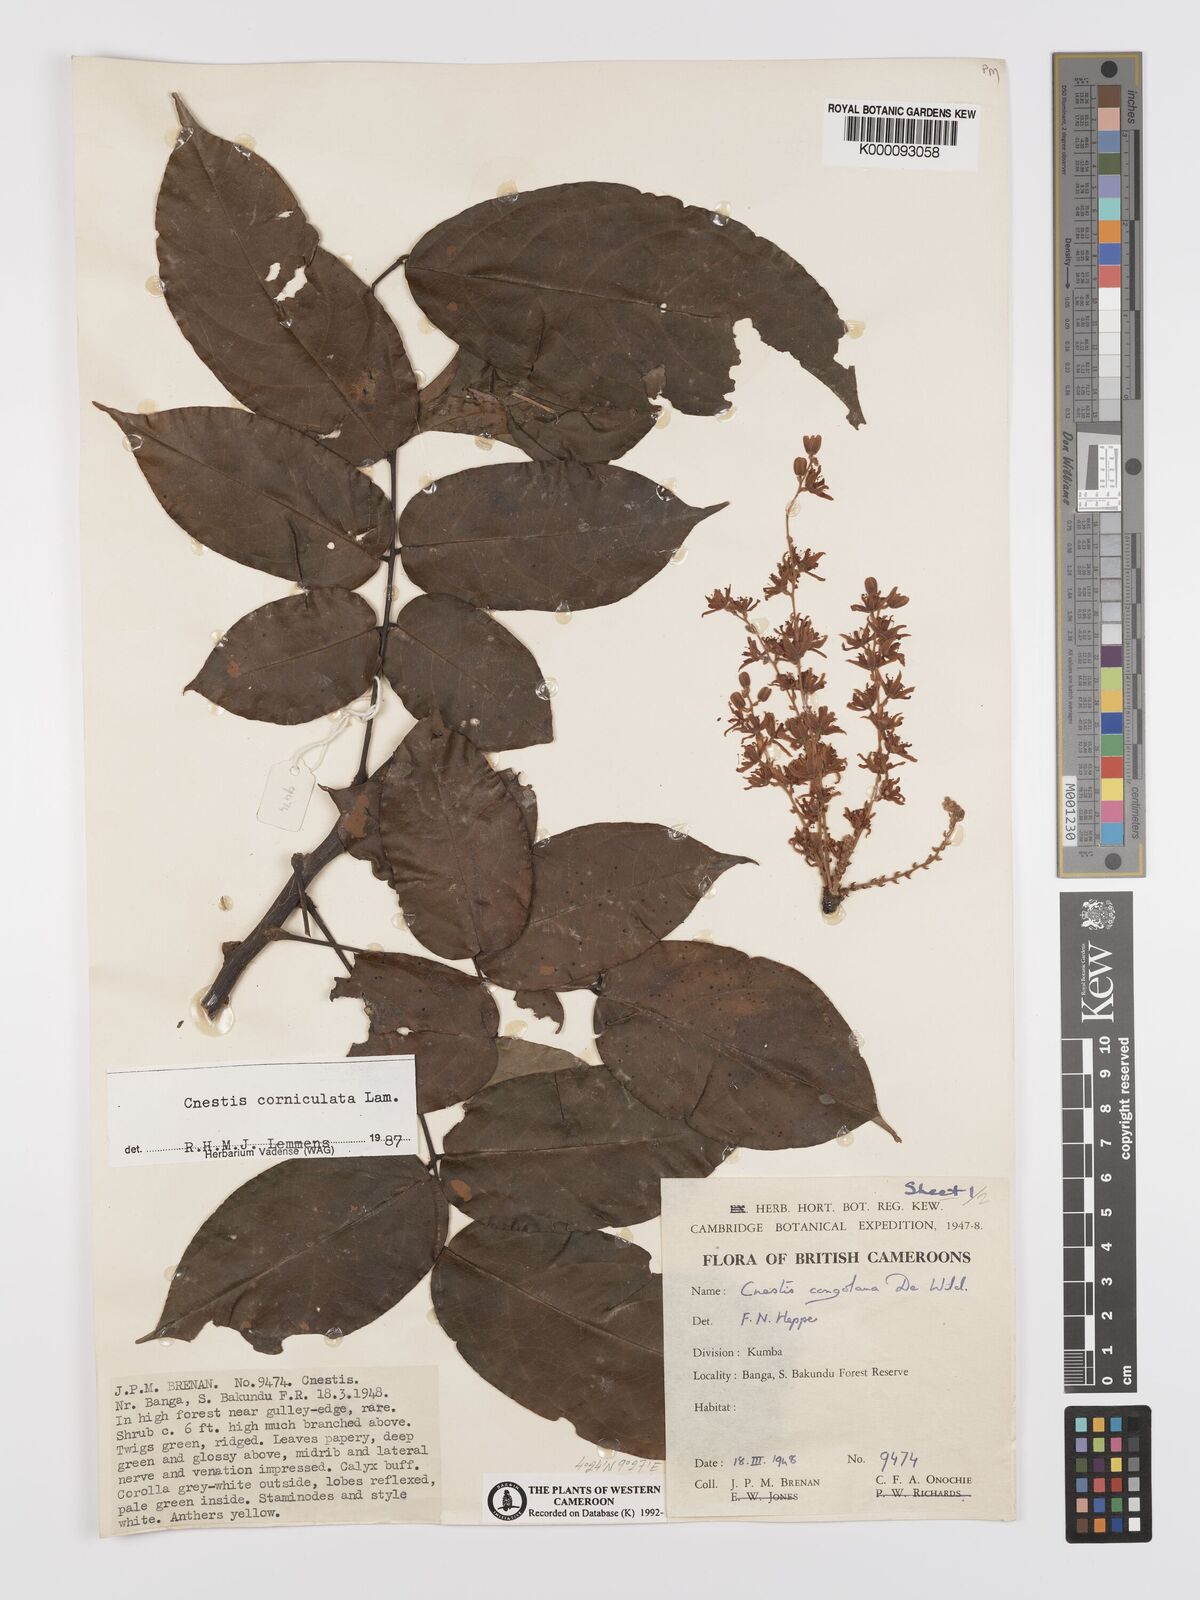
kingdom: Plantae
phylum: Tracheophyta
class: Magnoliopsida
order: Oxalidales
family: Connaraceae
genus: Cnestis
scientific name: Cnestis corniculata
